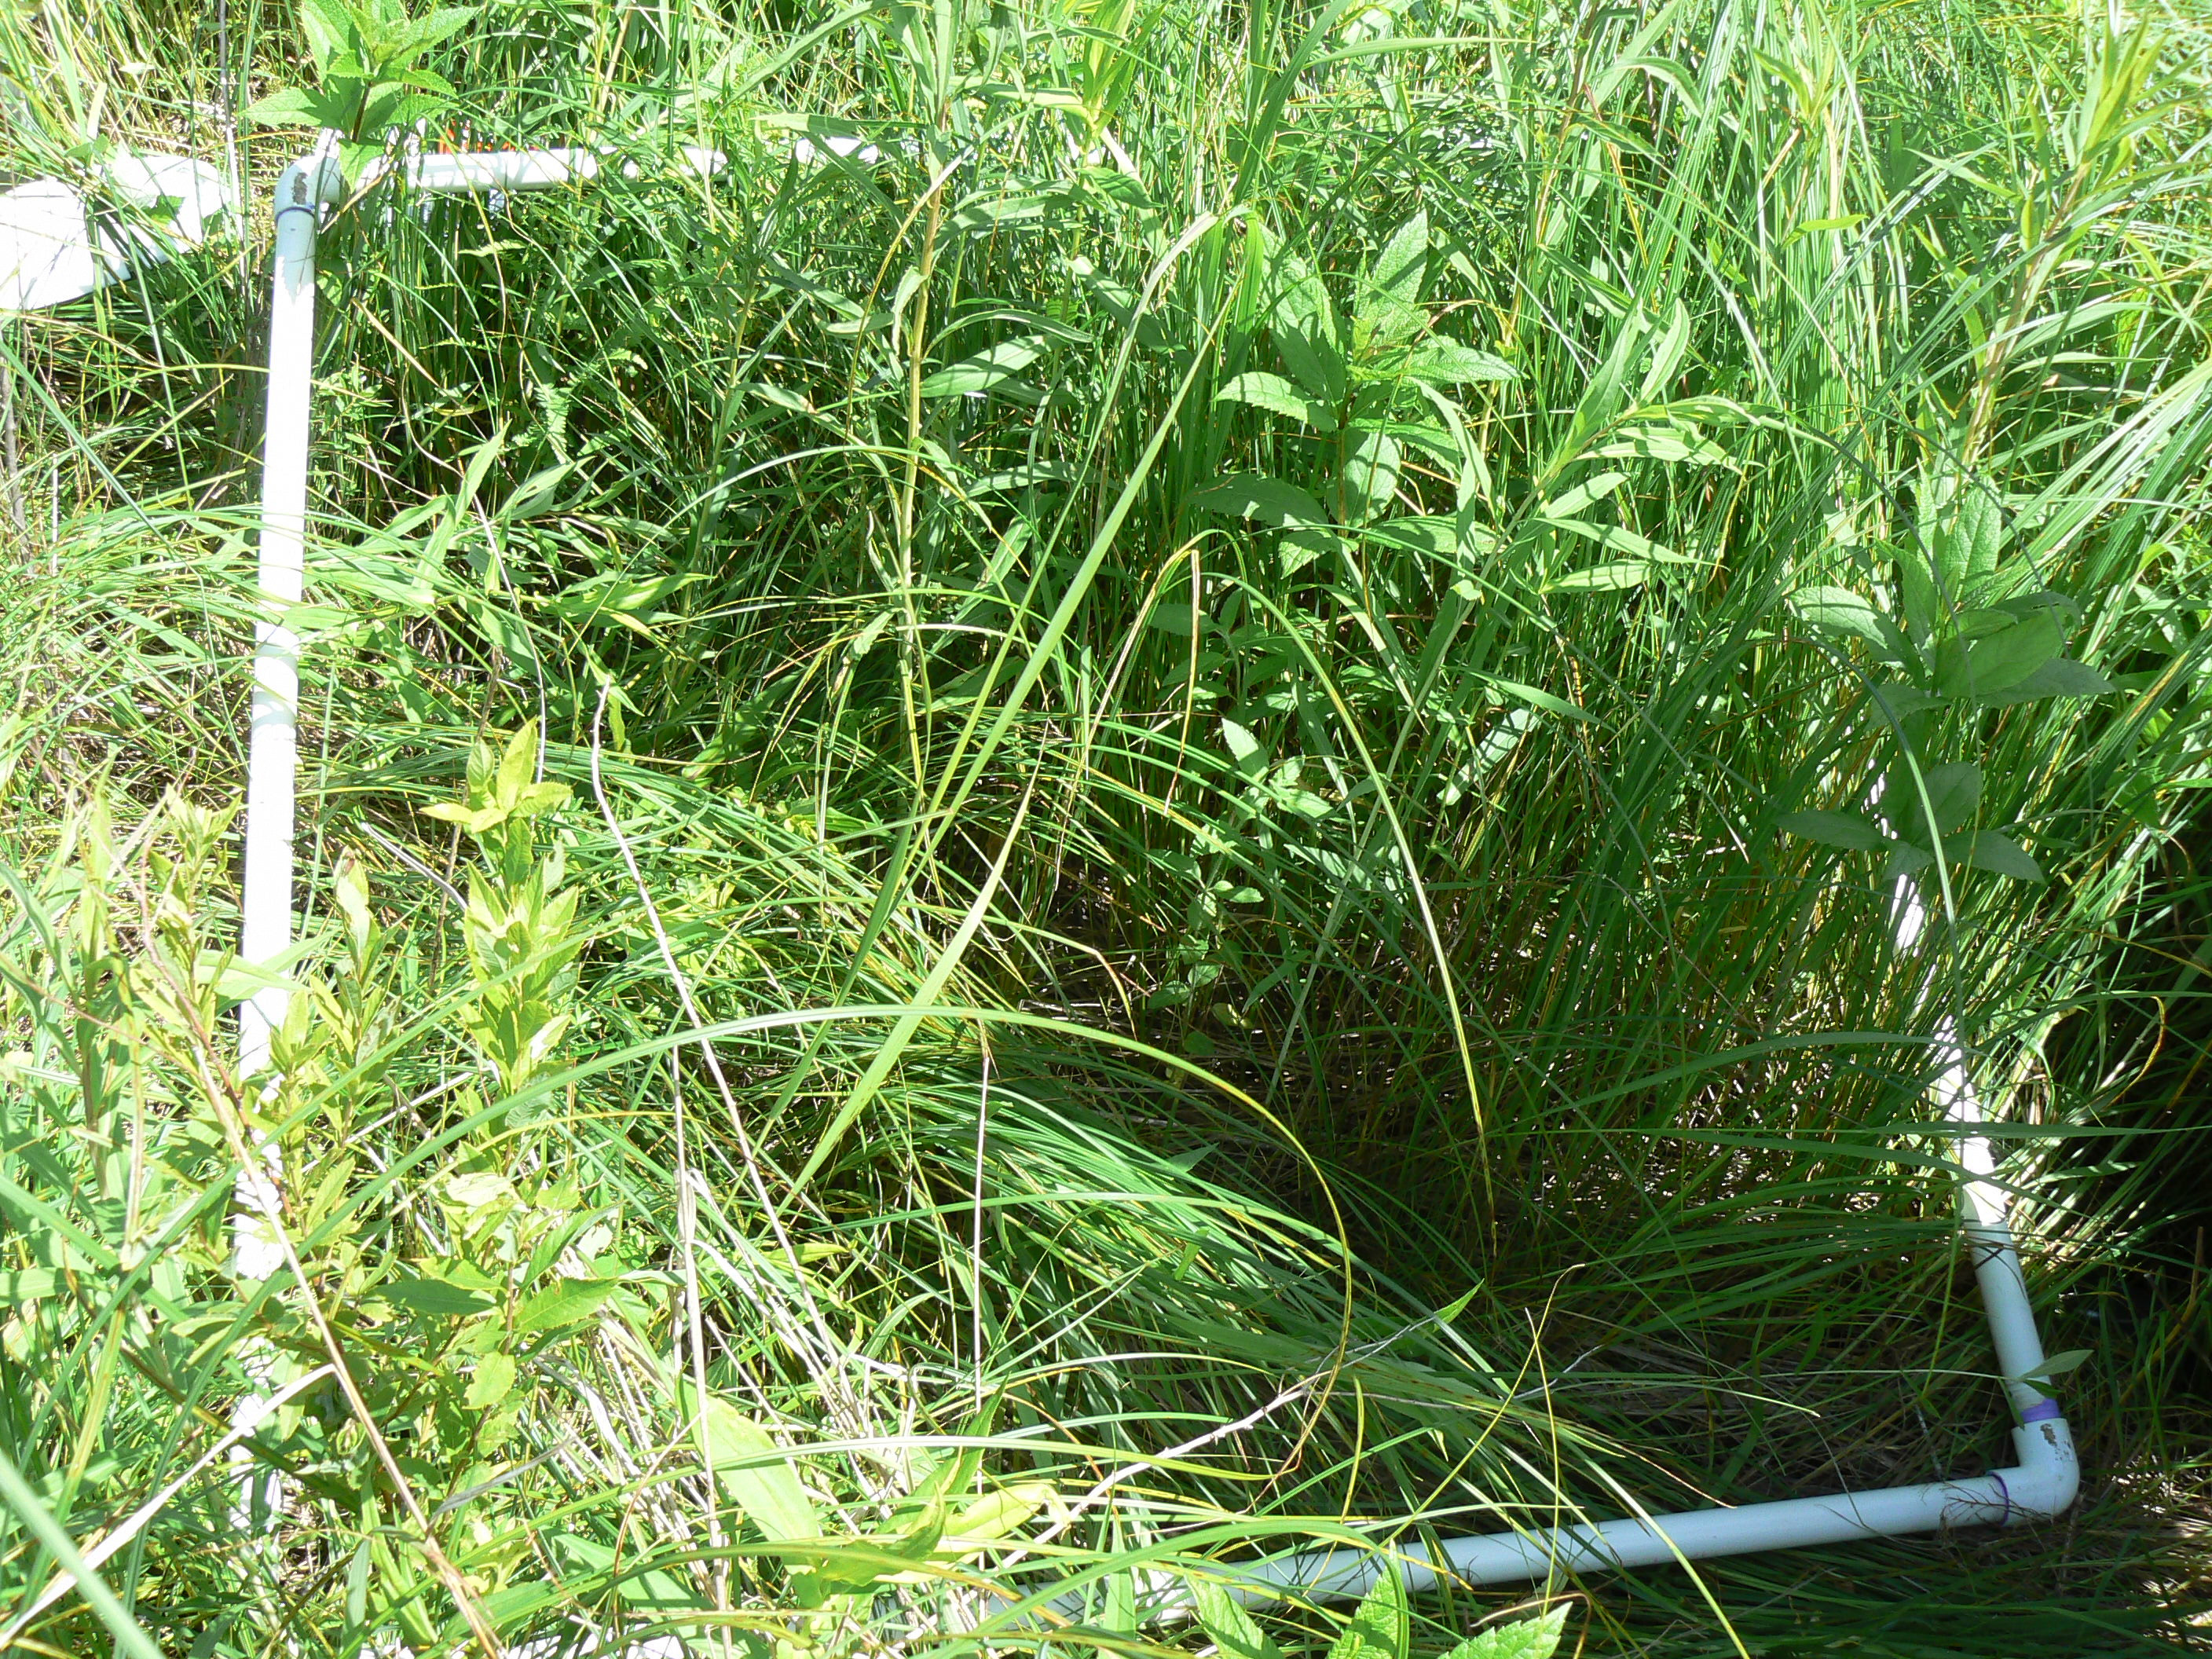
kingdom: Plantae
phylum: Tracheophyta
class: Magnoliopsida
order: Fabales
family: Fabaceae
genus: Lathyrus
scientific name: Lathyrus palustris
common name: Marsh pea
